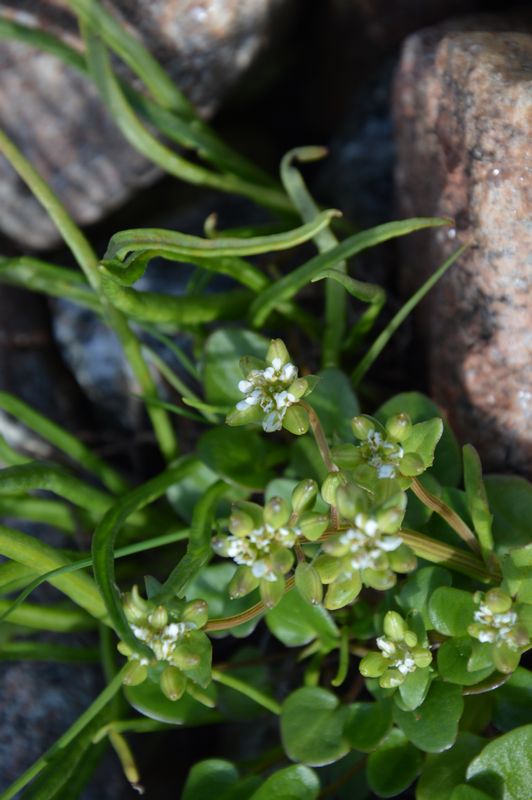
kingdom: Plantae
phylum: Tracheophyta
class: Magnoliopsida
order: Brassicales
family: Brassicaceae
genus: Cochlearia
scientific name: Cochlearia groenlandica
